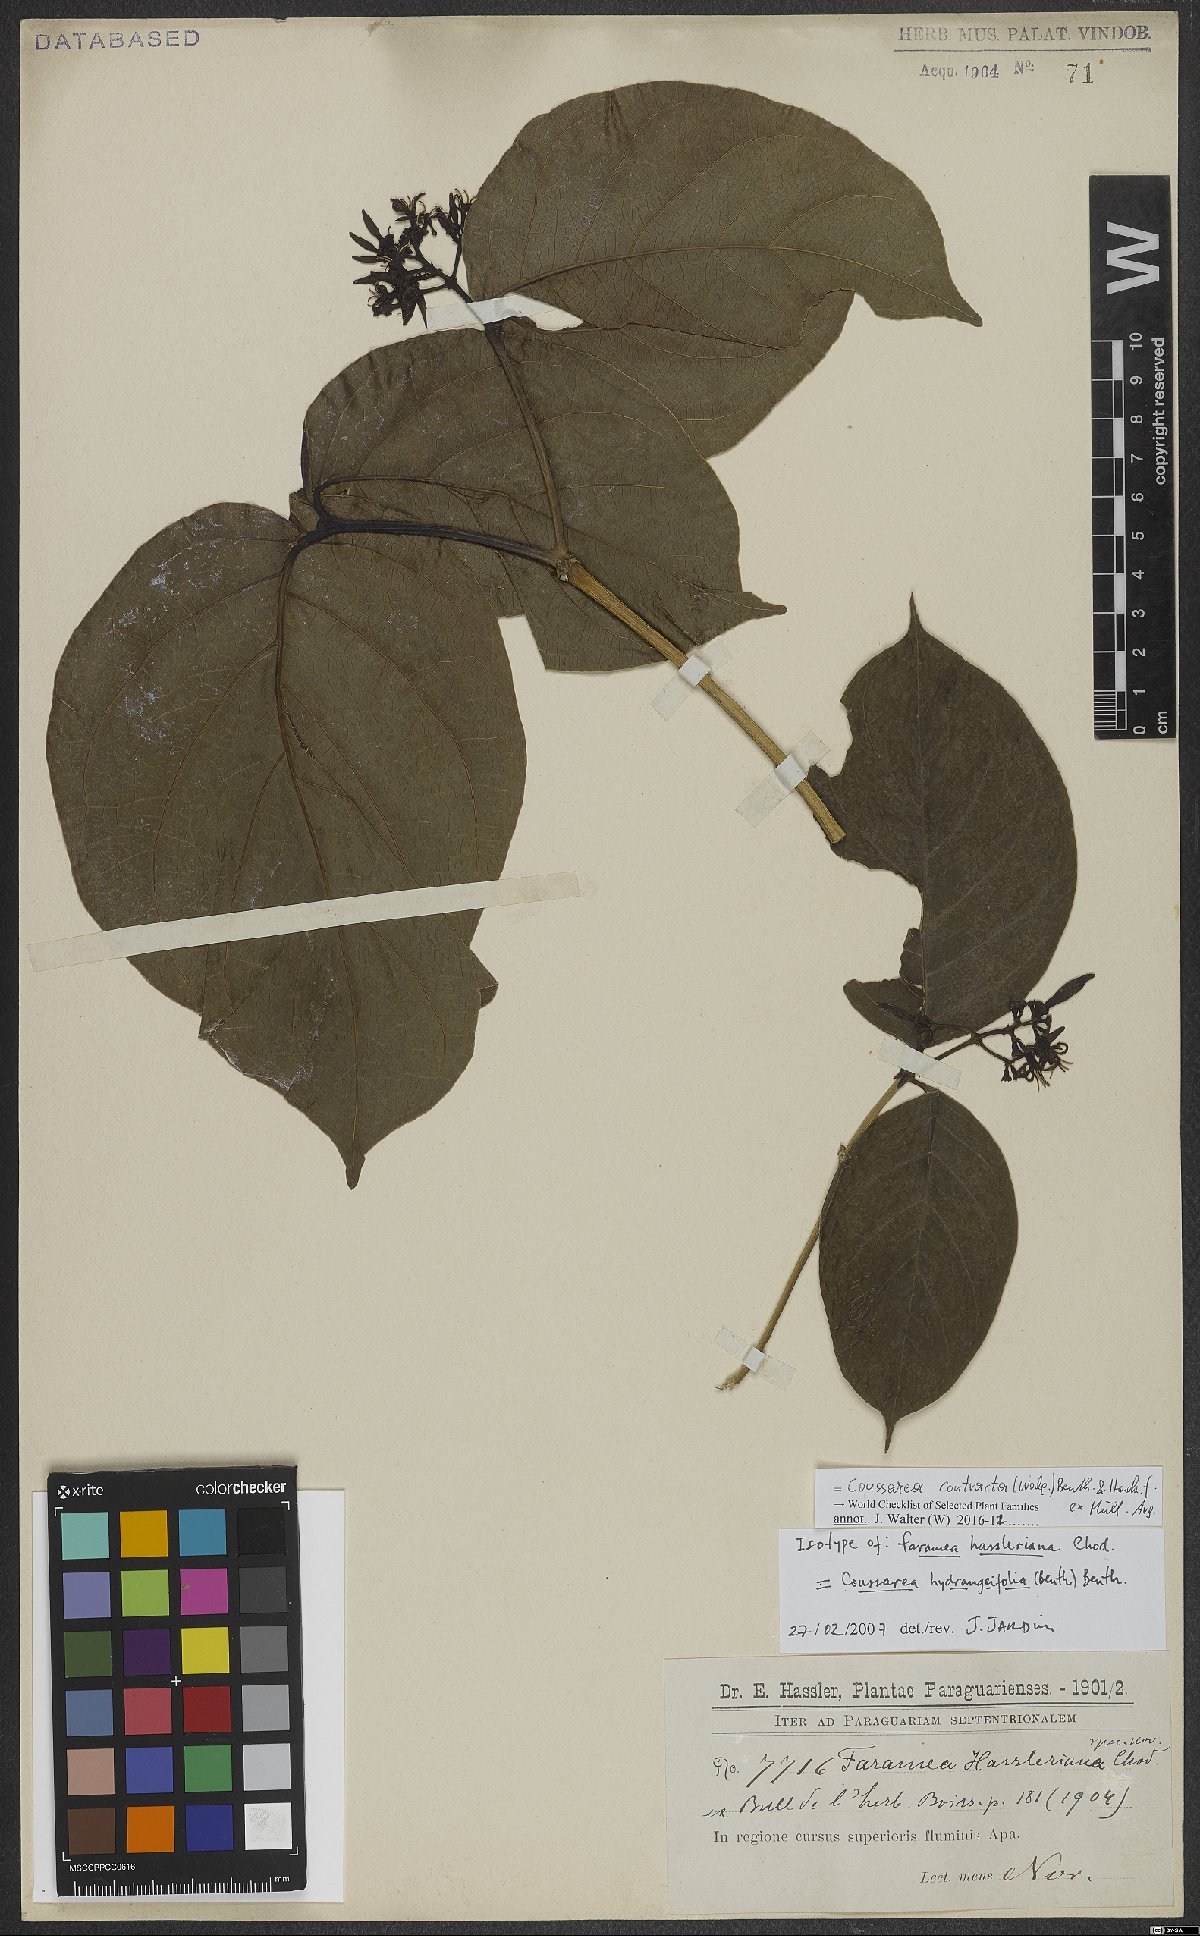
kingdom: Plantae
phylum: Tracheophyta
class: Magnoliopsida
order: Gentianales
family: Rubiaceae
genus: Coussarea
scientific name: Coussarea contracta
